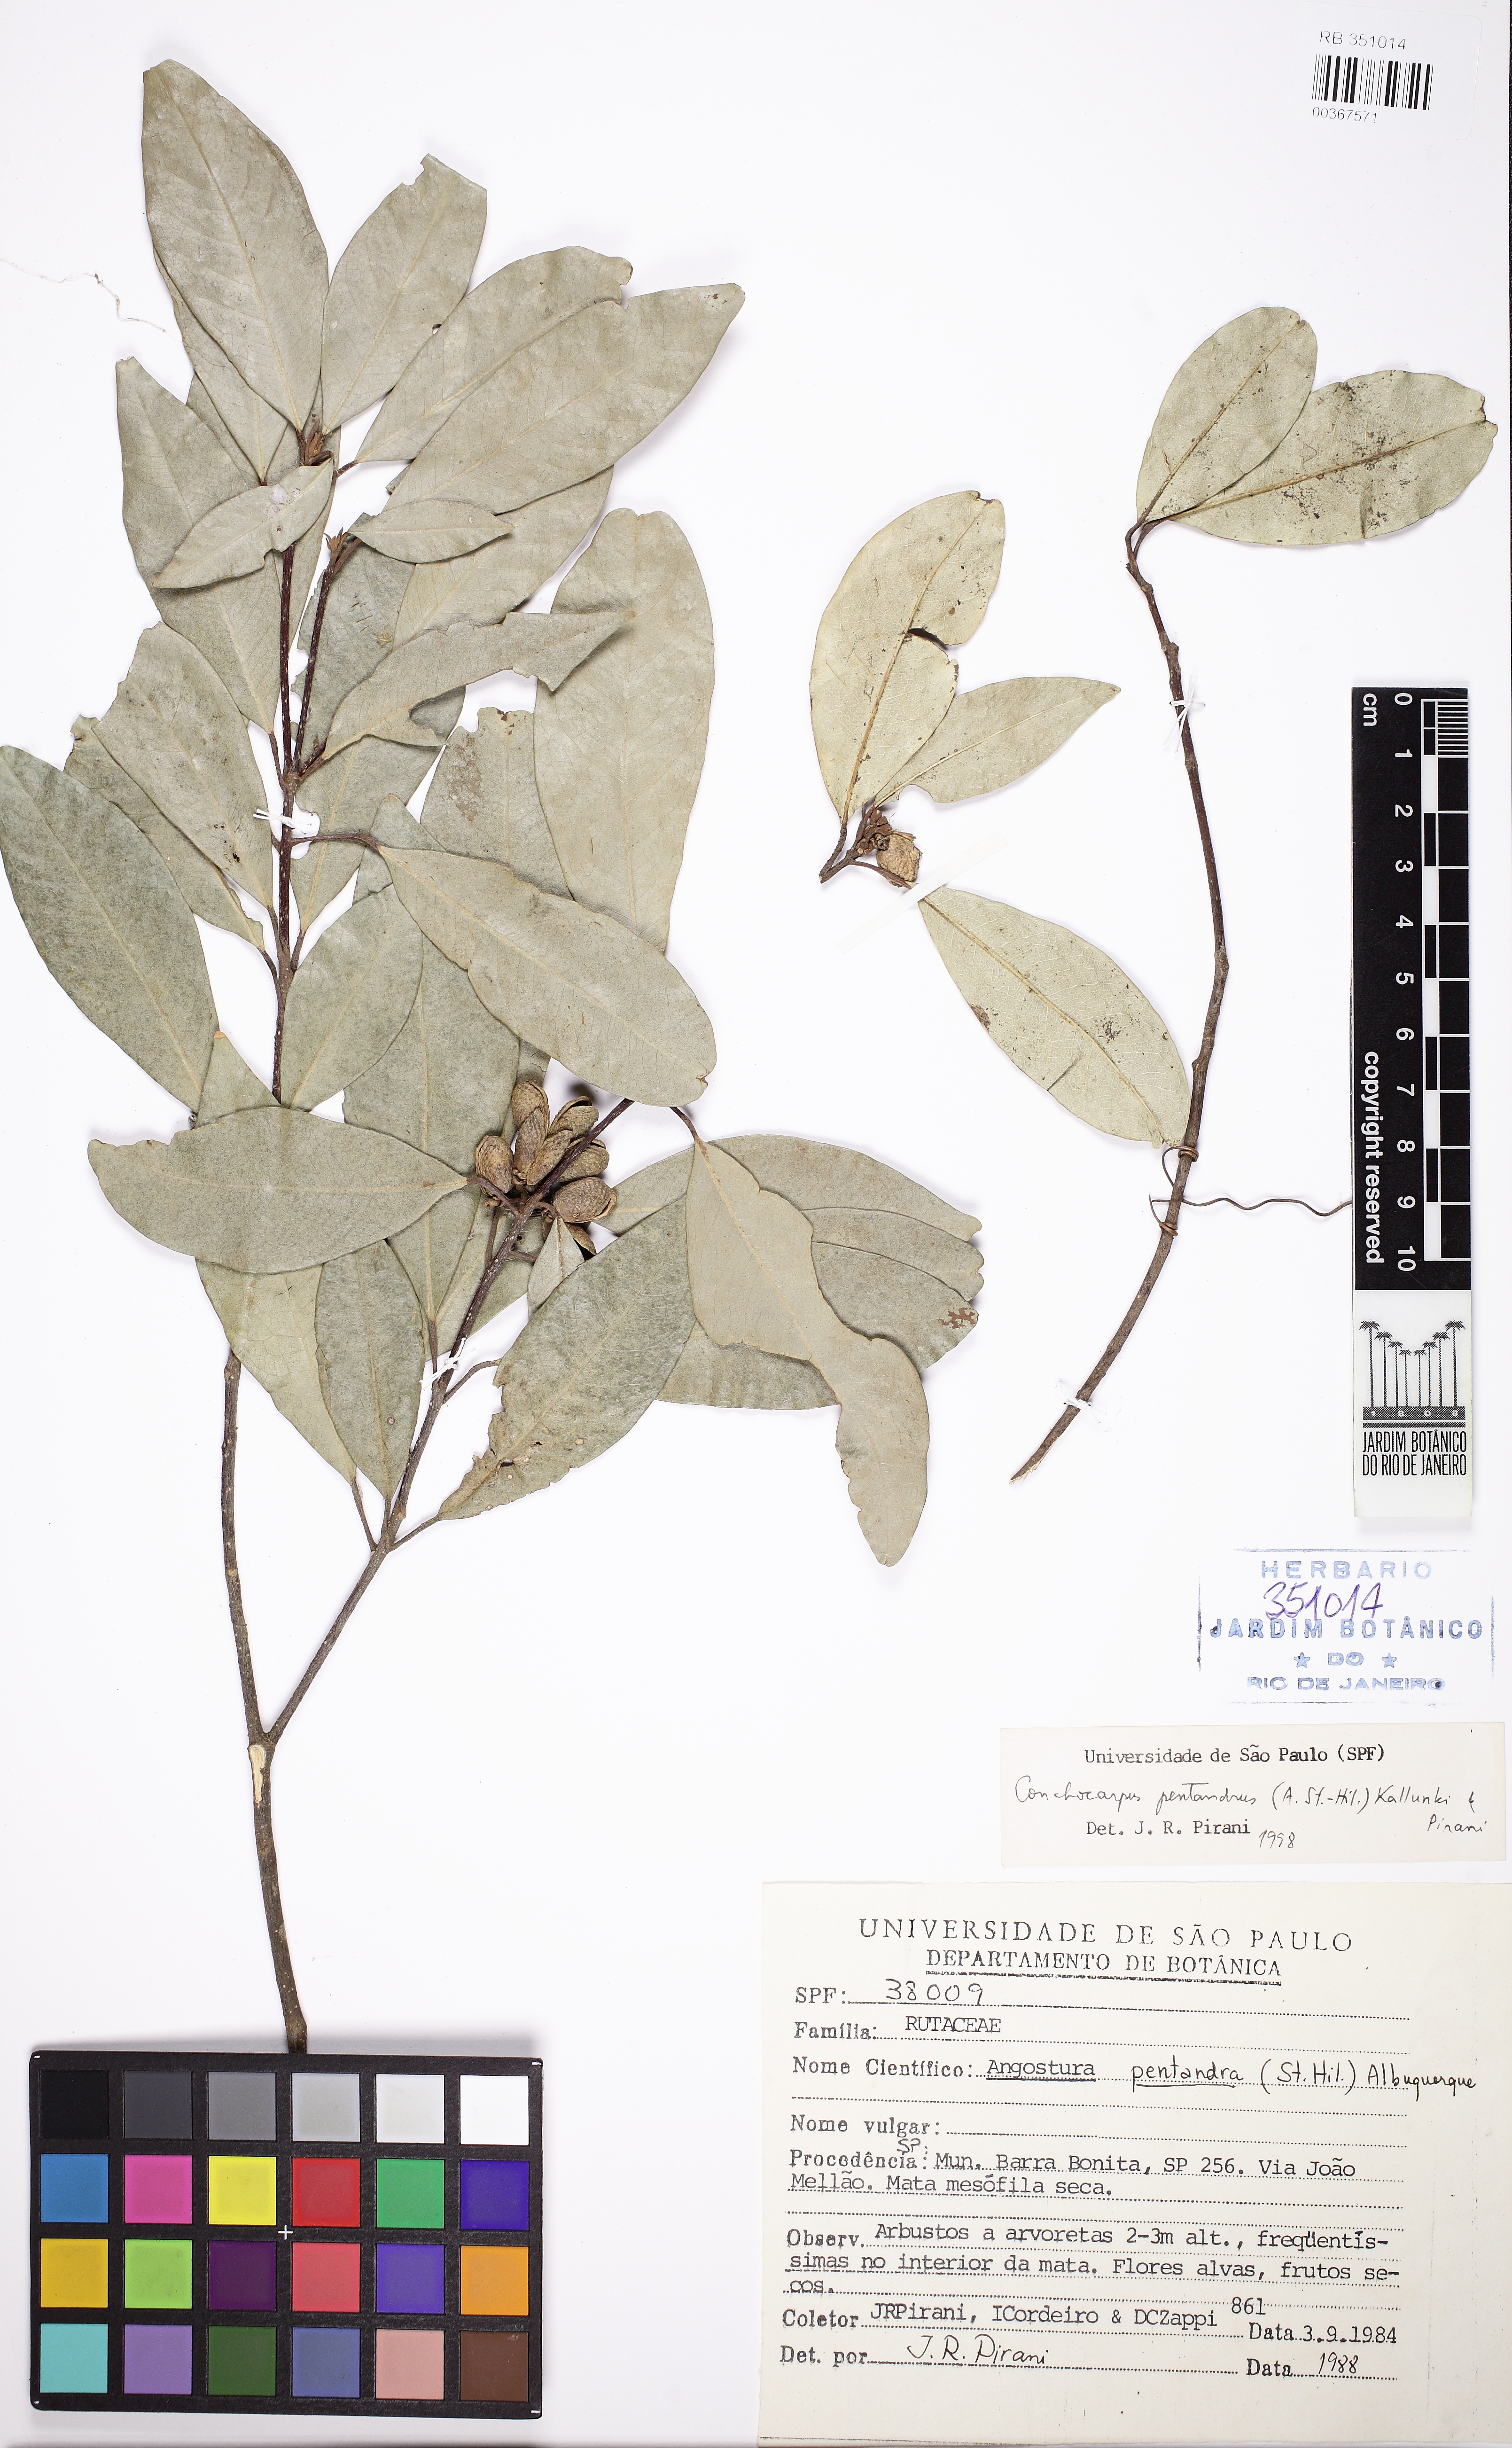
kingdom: Plantae
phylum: Tracheophyta
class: Magnoliopsida
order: Sapindales
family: Rutaceae
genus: Conchocarpus
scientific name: Conchocarpus pentandrus
